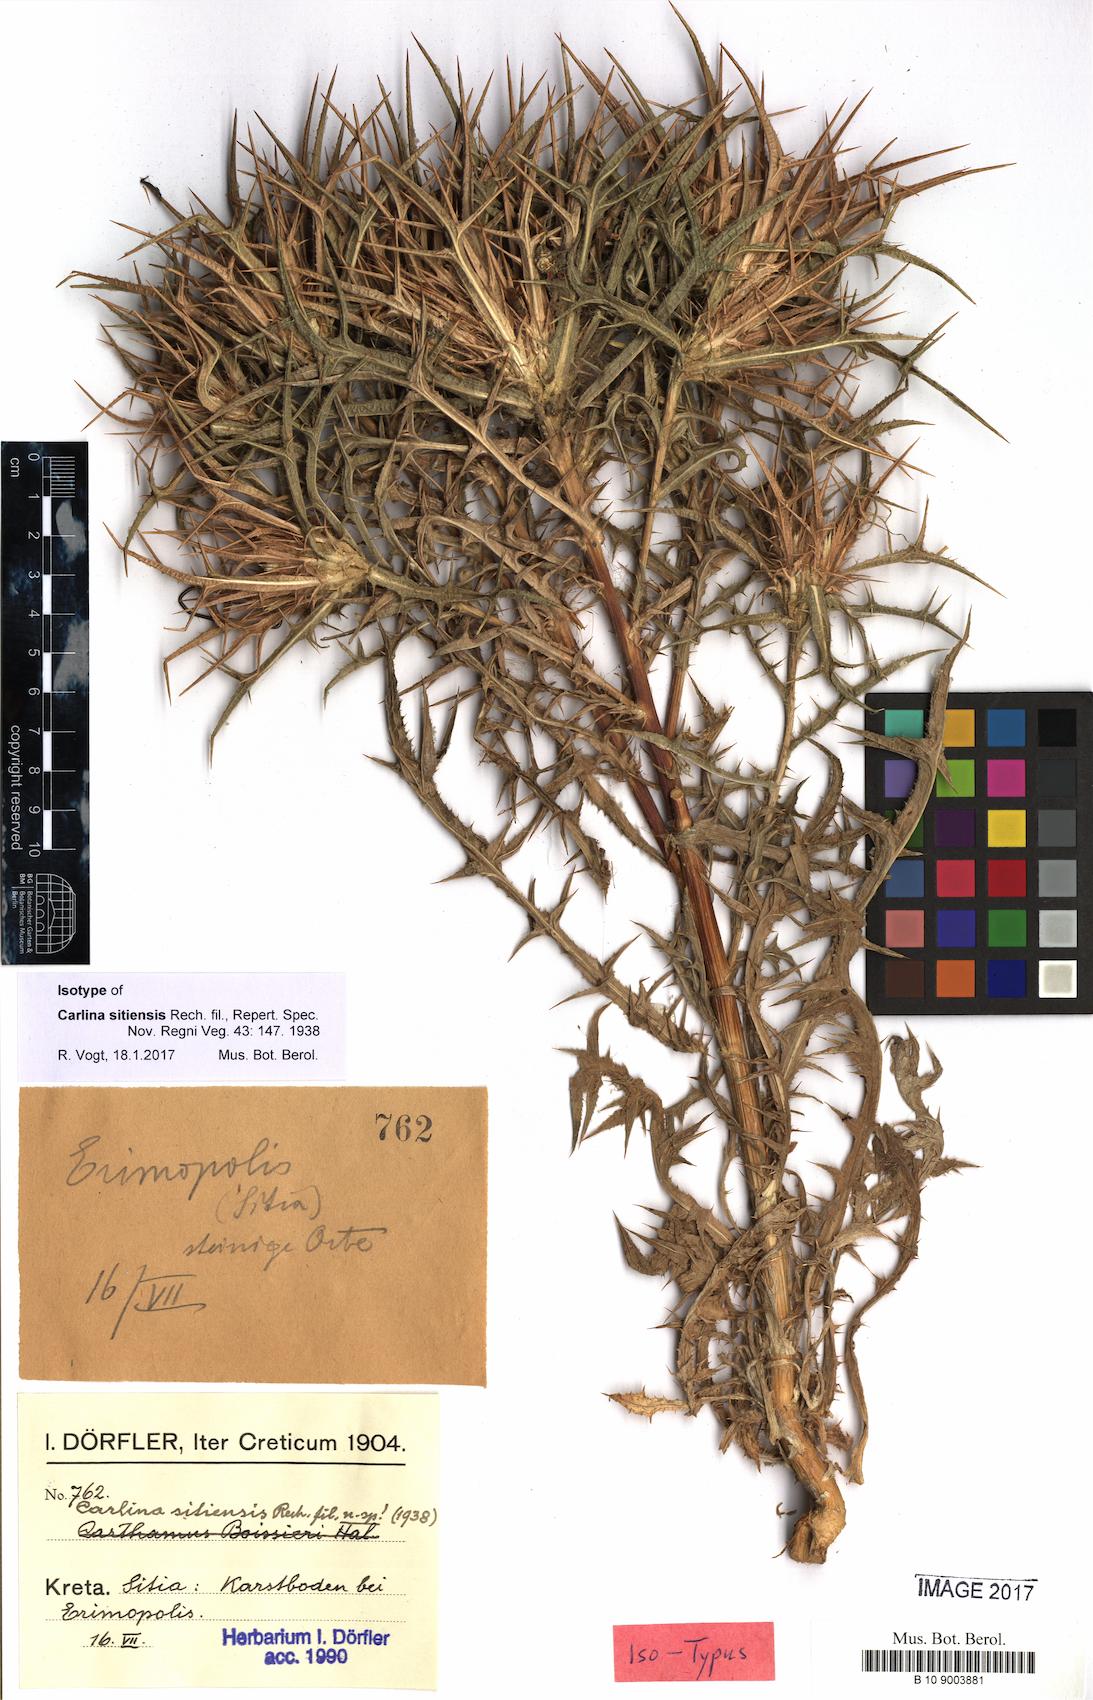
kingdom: Plantae
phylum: Tracheophyta
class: Magnoliopsida
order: Asterales
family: Asteraceae
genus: Carlina
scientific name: Carlina sitiensis
